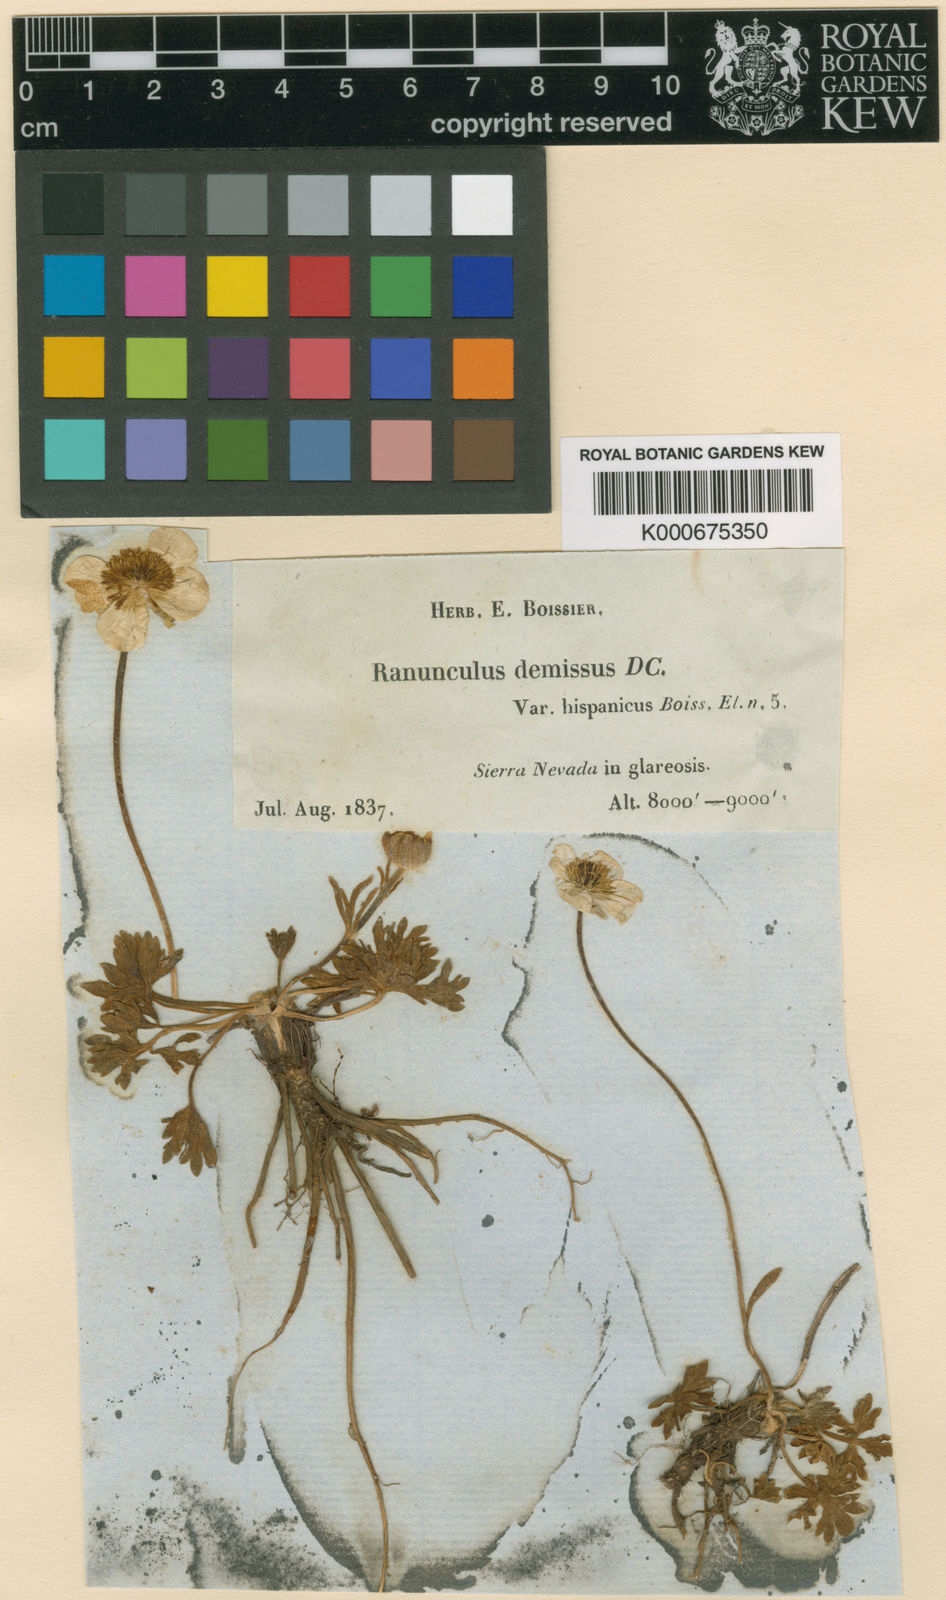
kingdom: Plantae
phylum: Tracheophyta
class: Magnoliopsida
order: Ranunculales
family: Ranunculaceae
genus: Ranunculus
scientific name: Ranunculus demissus
